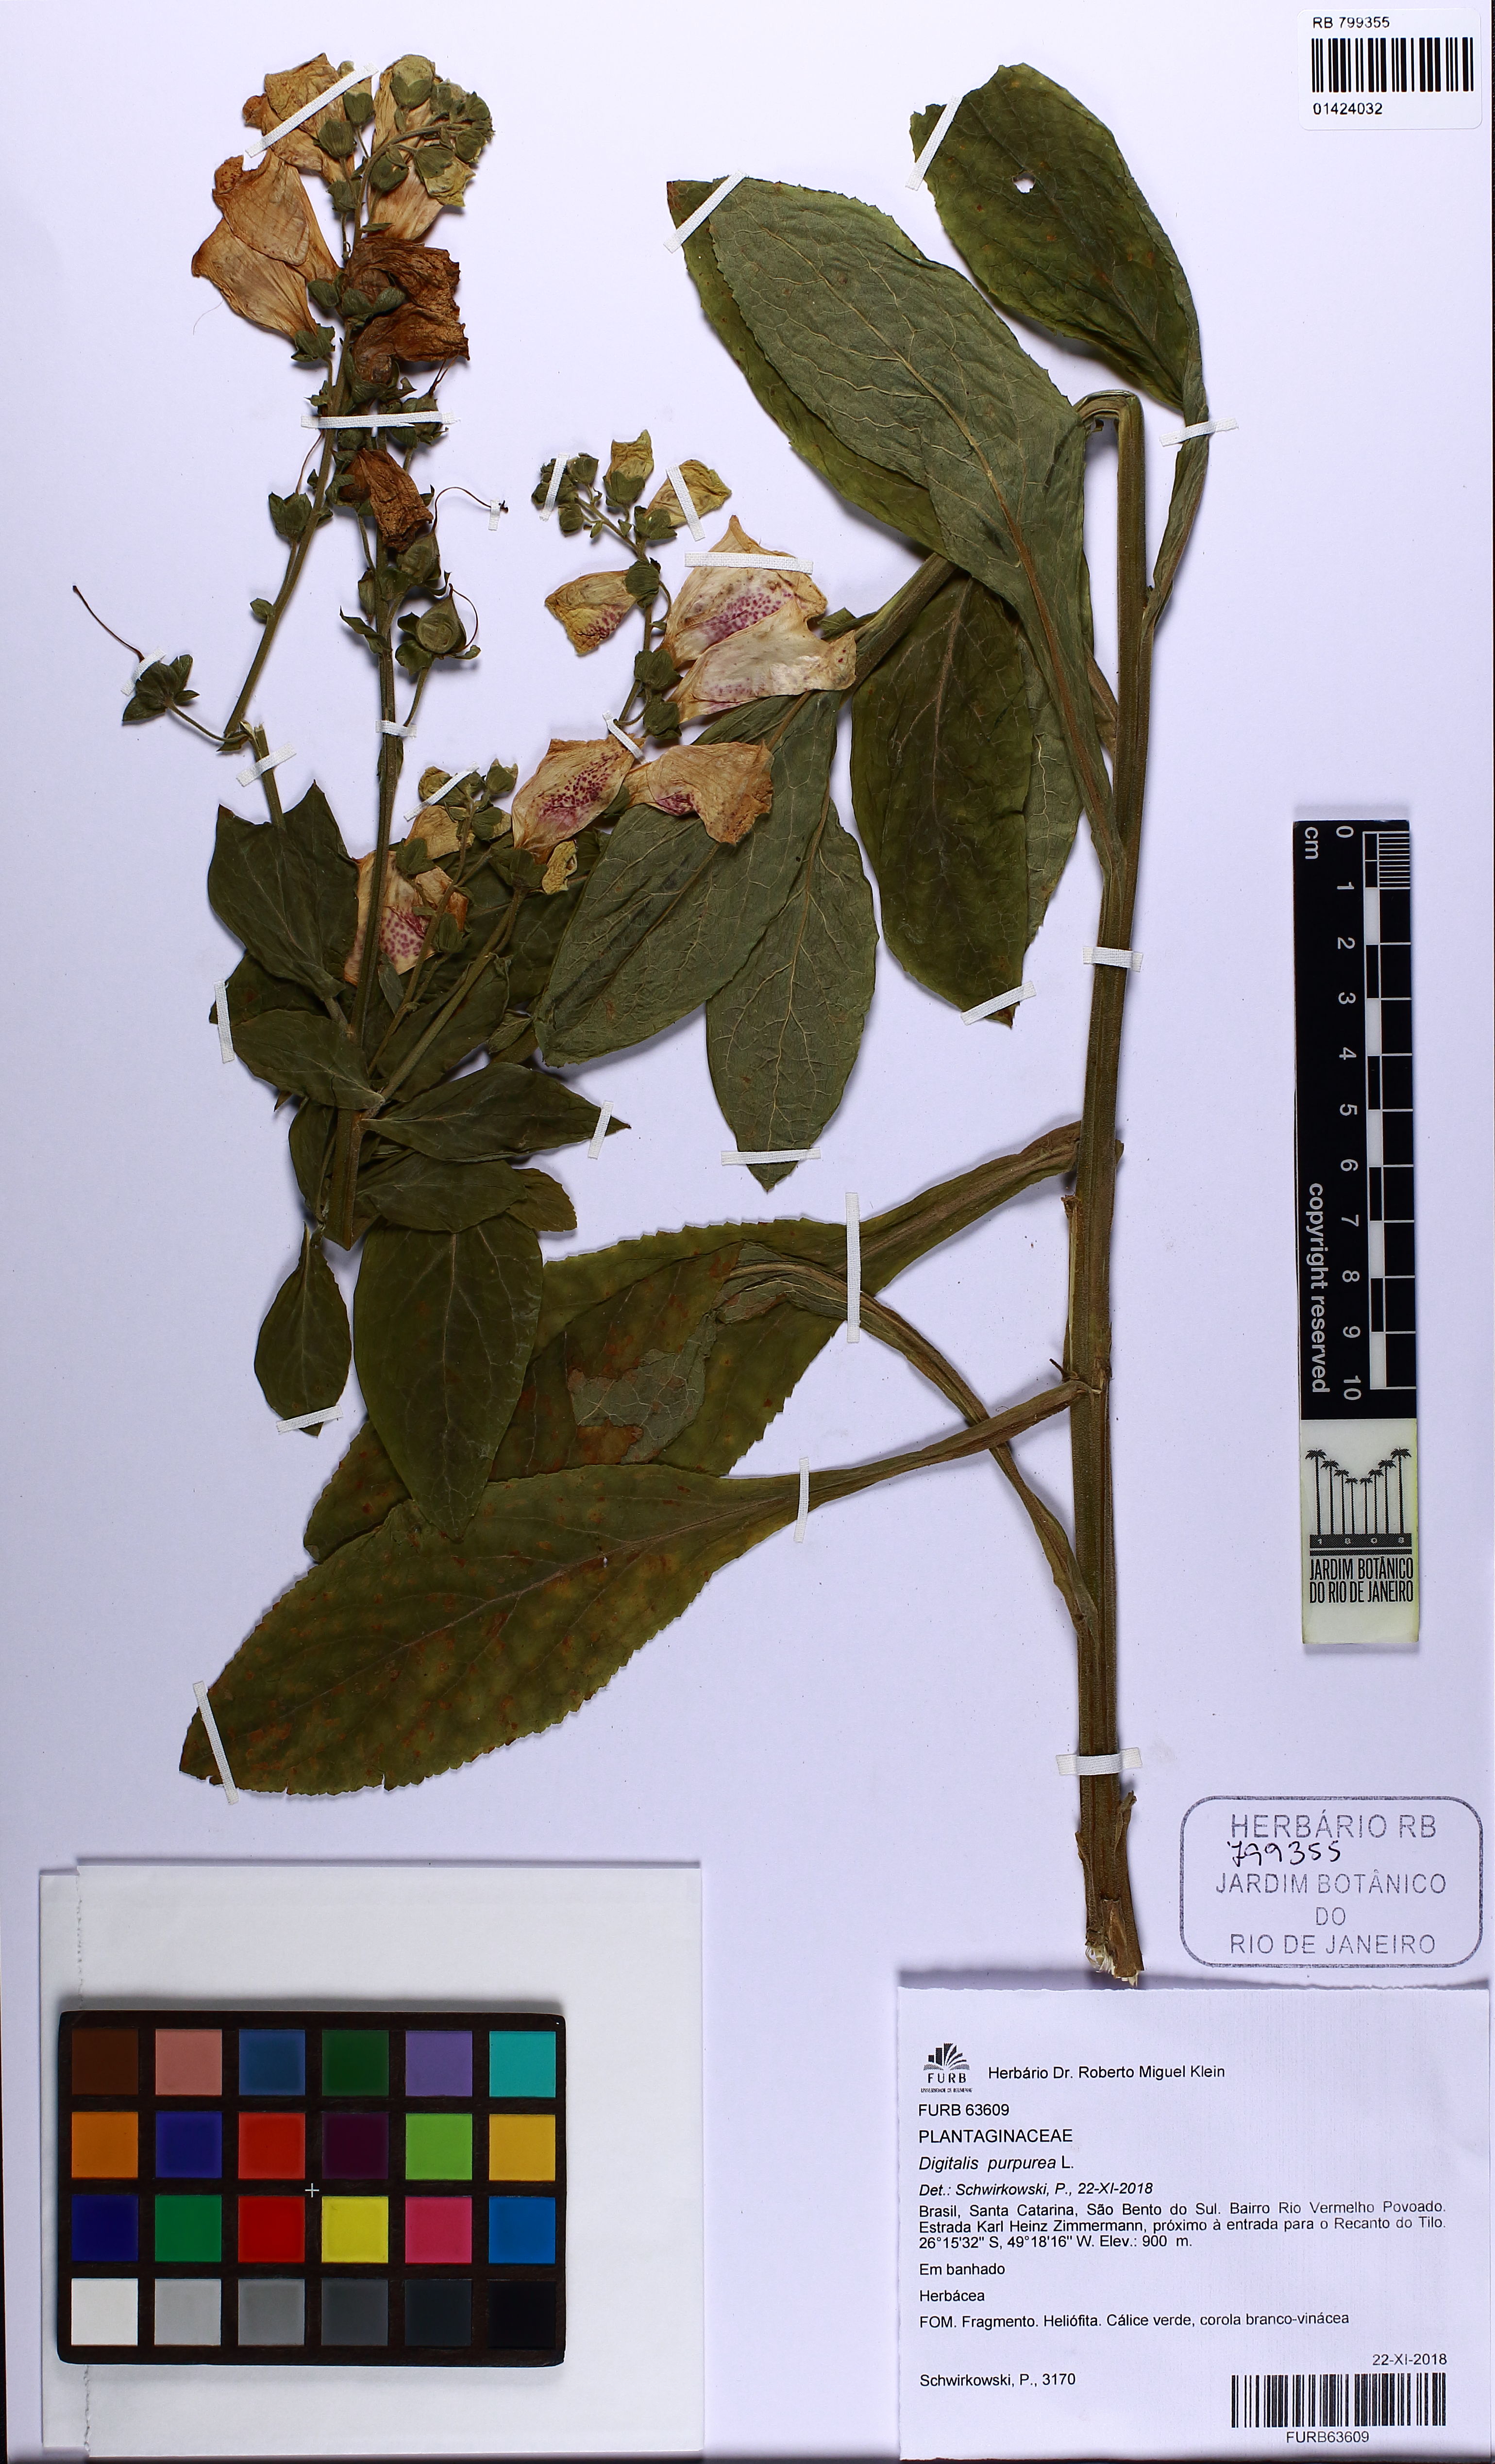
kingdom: Plantae
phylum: Tracheophyta
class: Magnoliopsida
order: Lamiales
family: Plantaginaceae
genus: Digitalis
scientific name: Digitalis purpurea
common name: Foxglove
